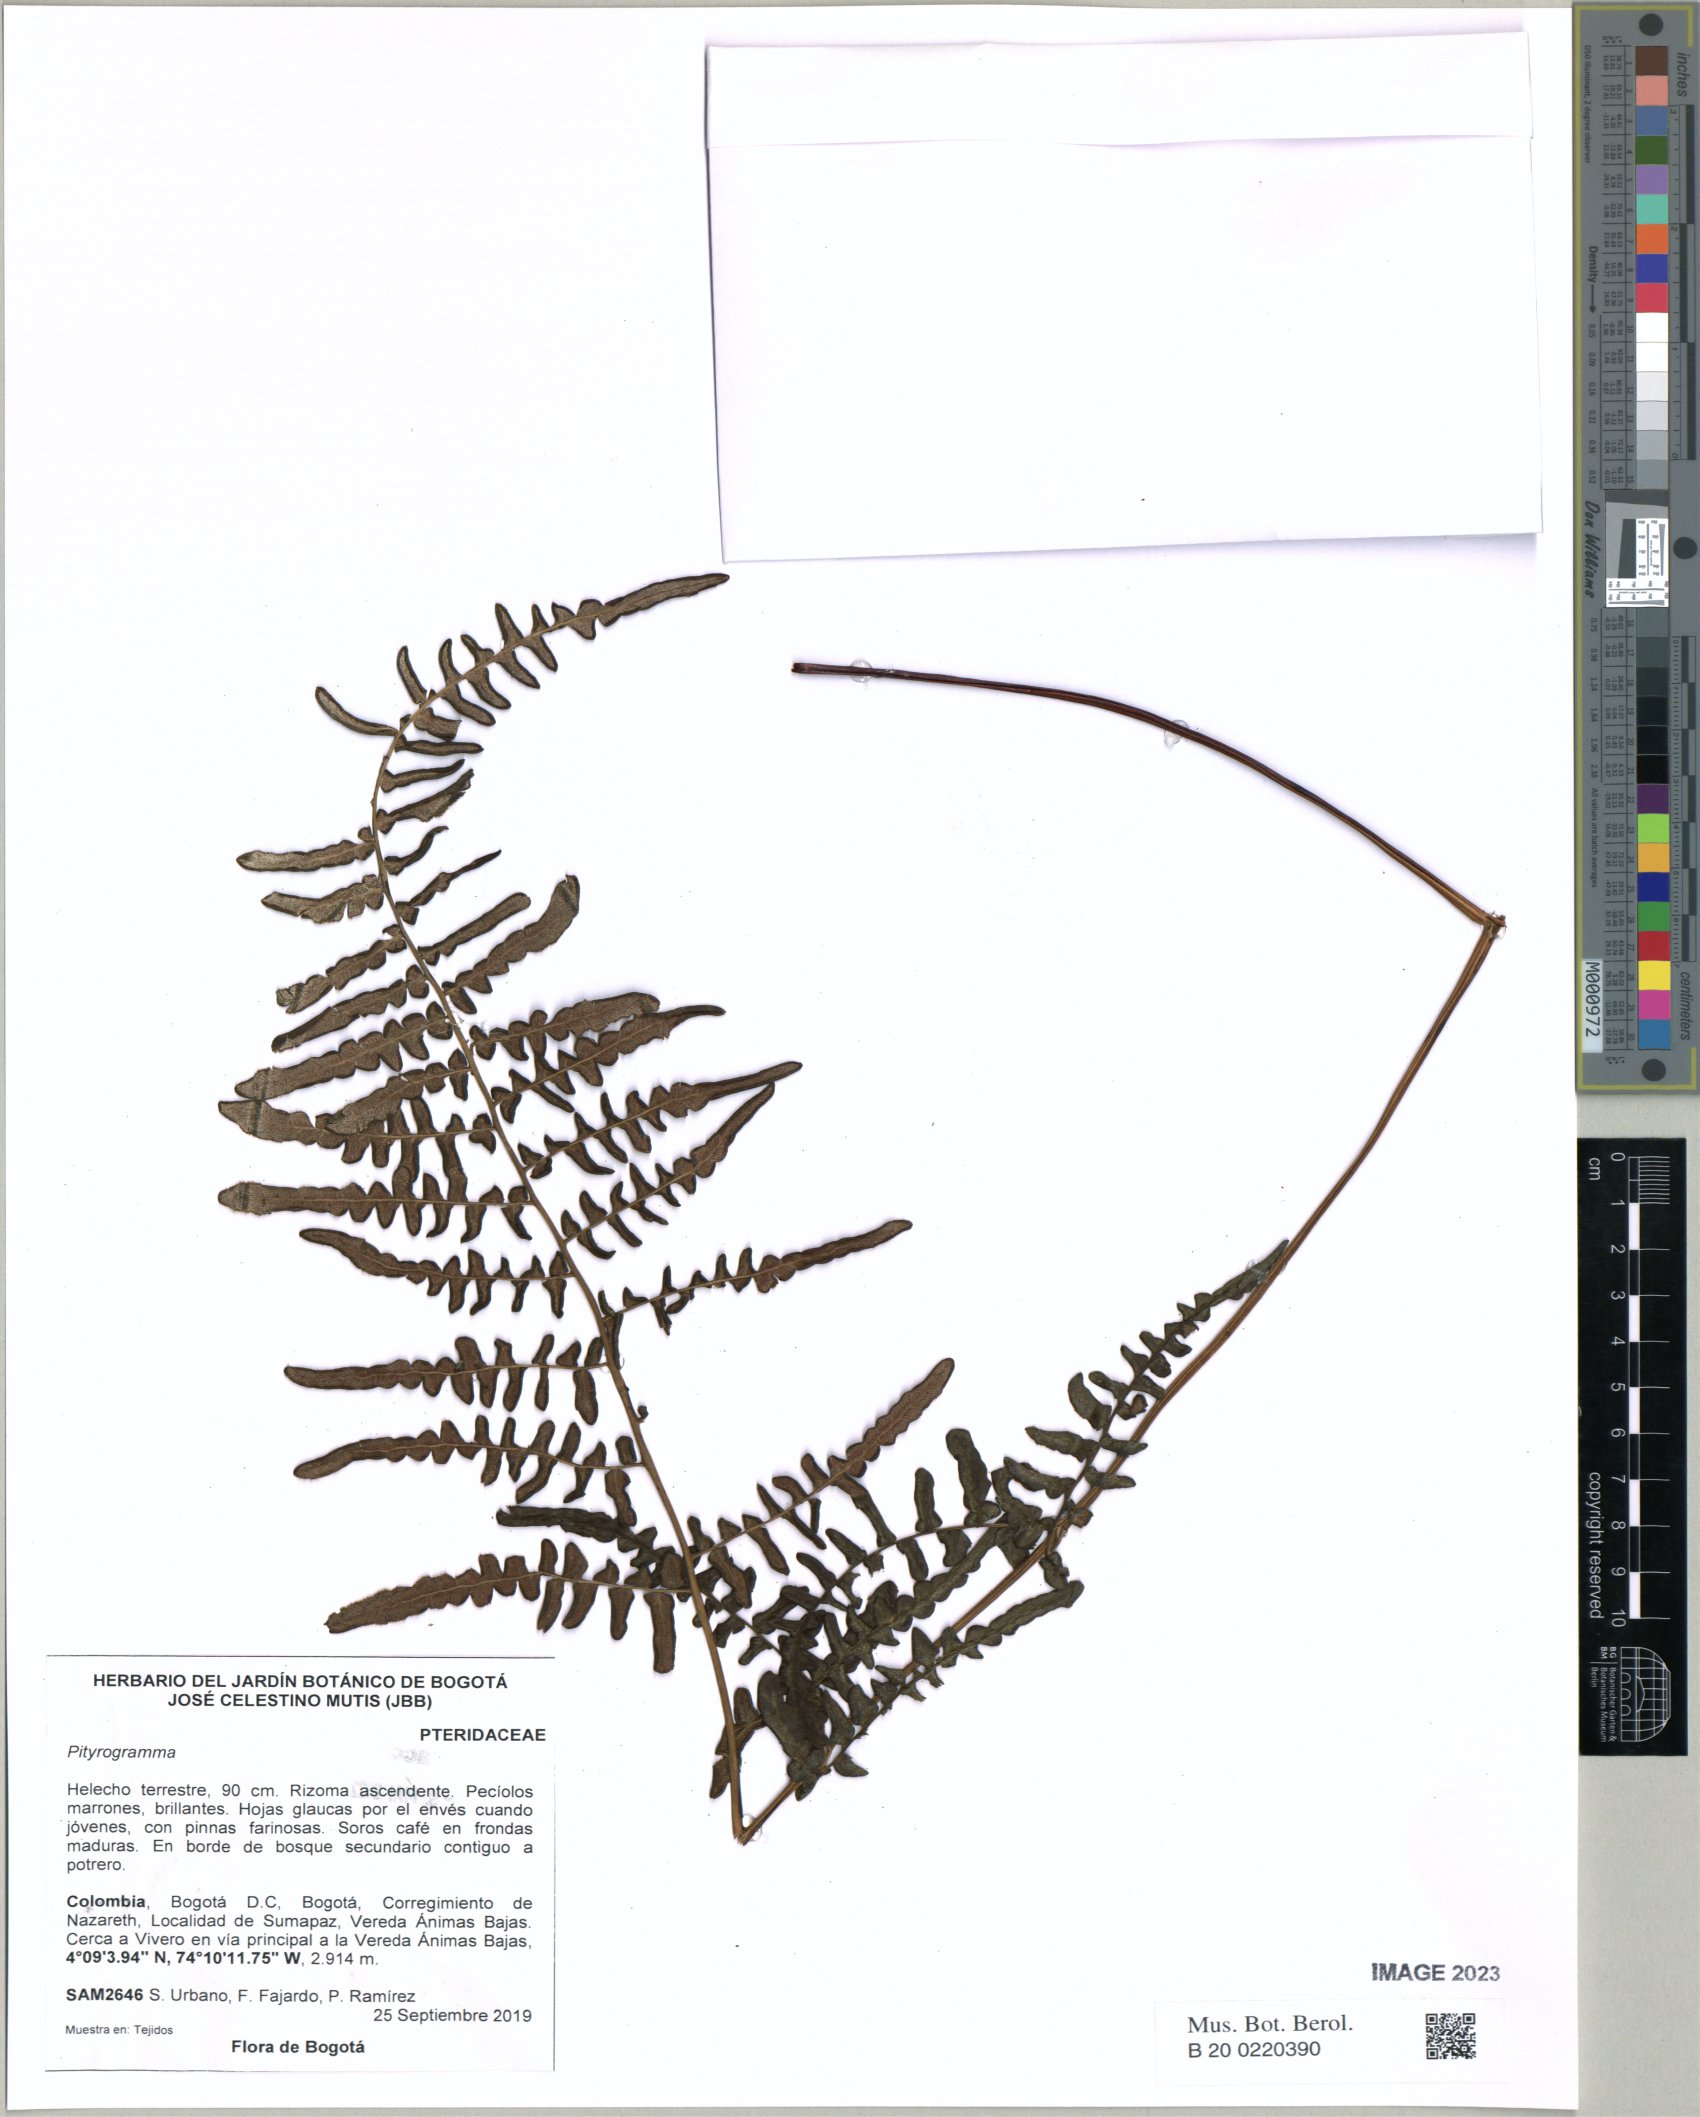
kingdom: Plantae
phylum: Tracheophyta
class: Polypodiopsida
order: Polypodiales
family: Pteridaceae
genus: Pityrogramma
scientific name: Pityrogramma
